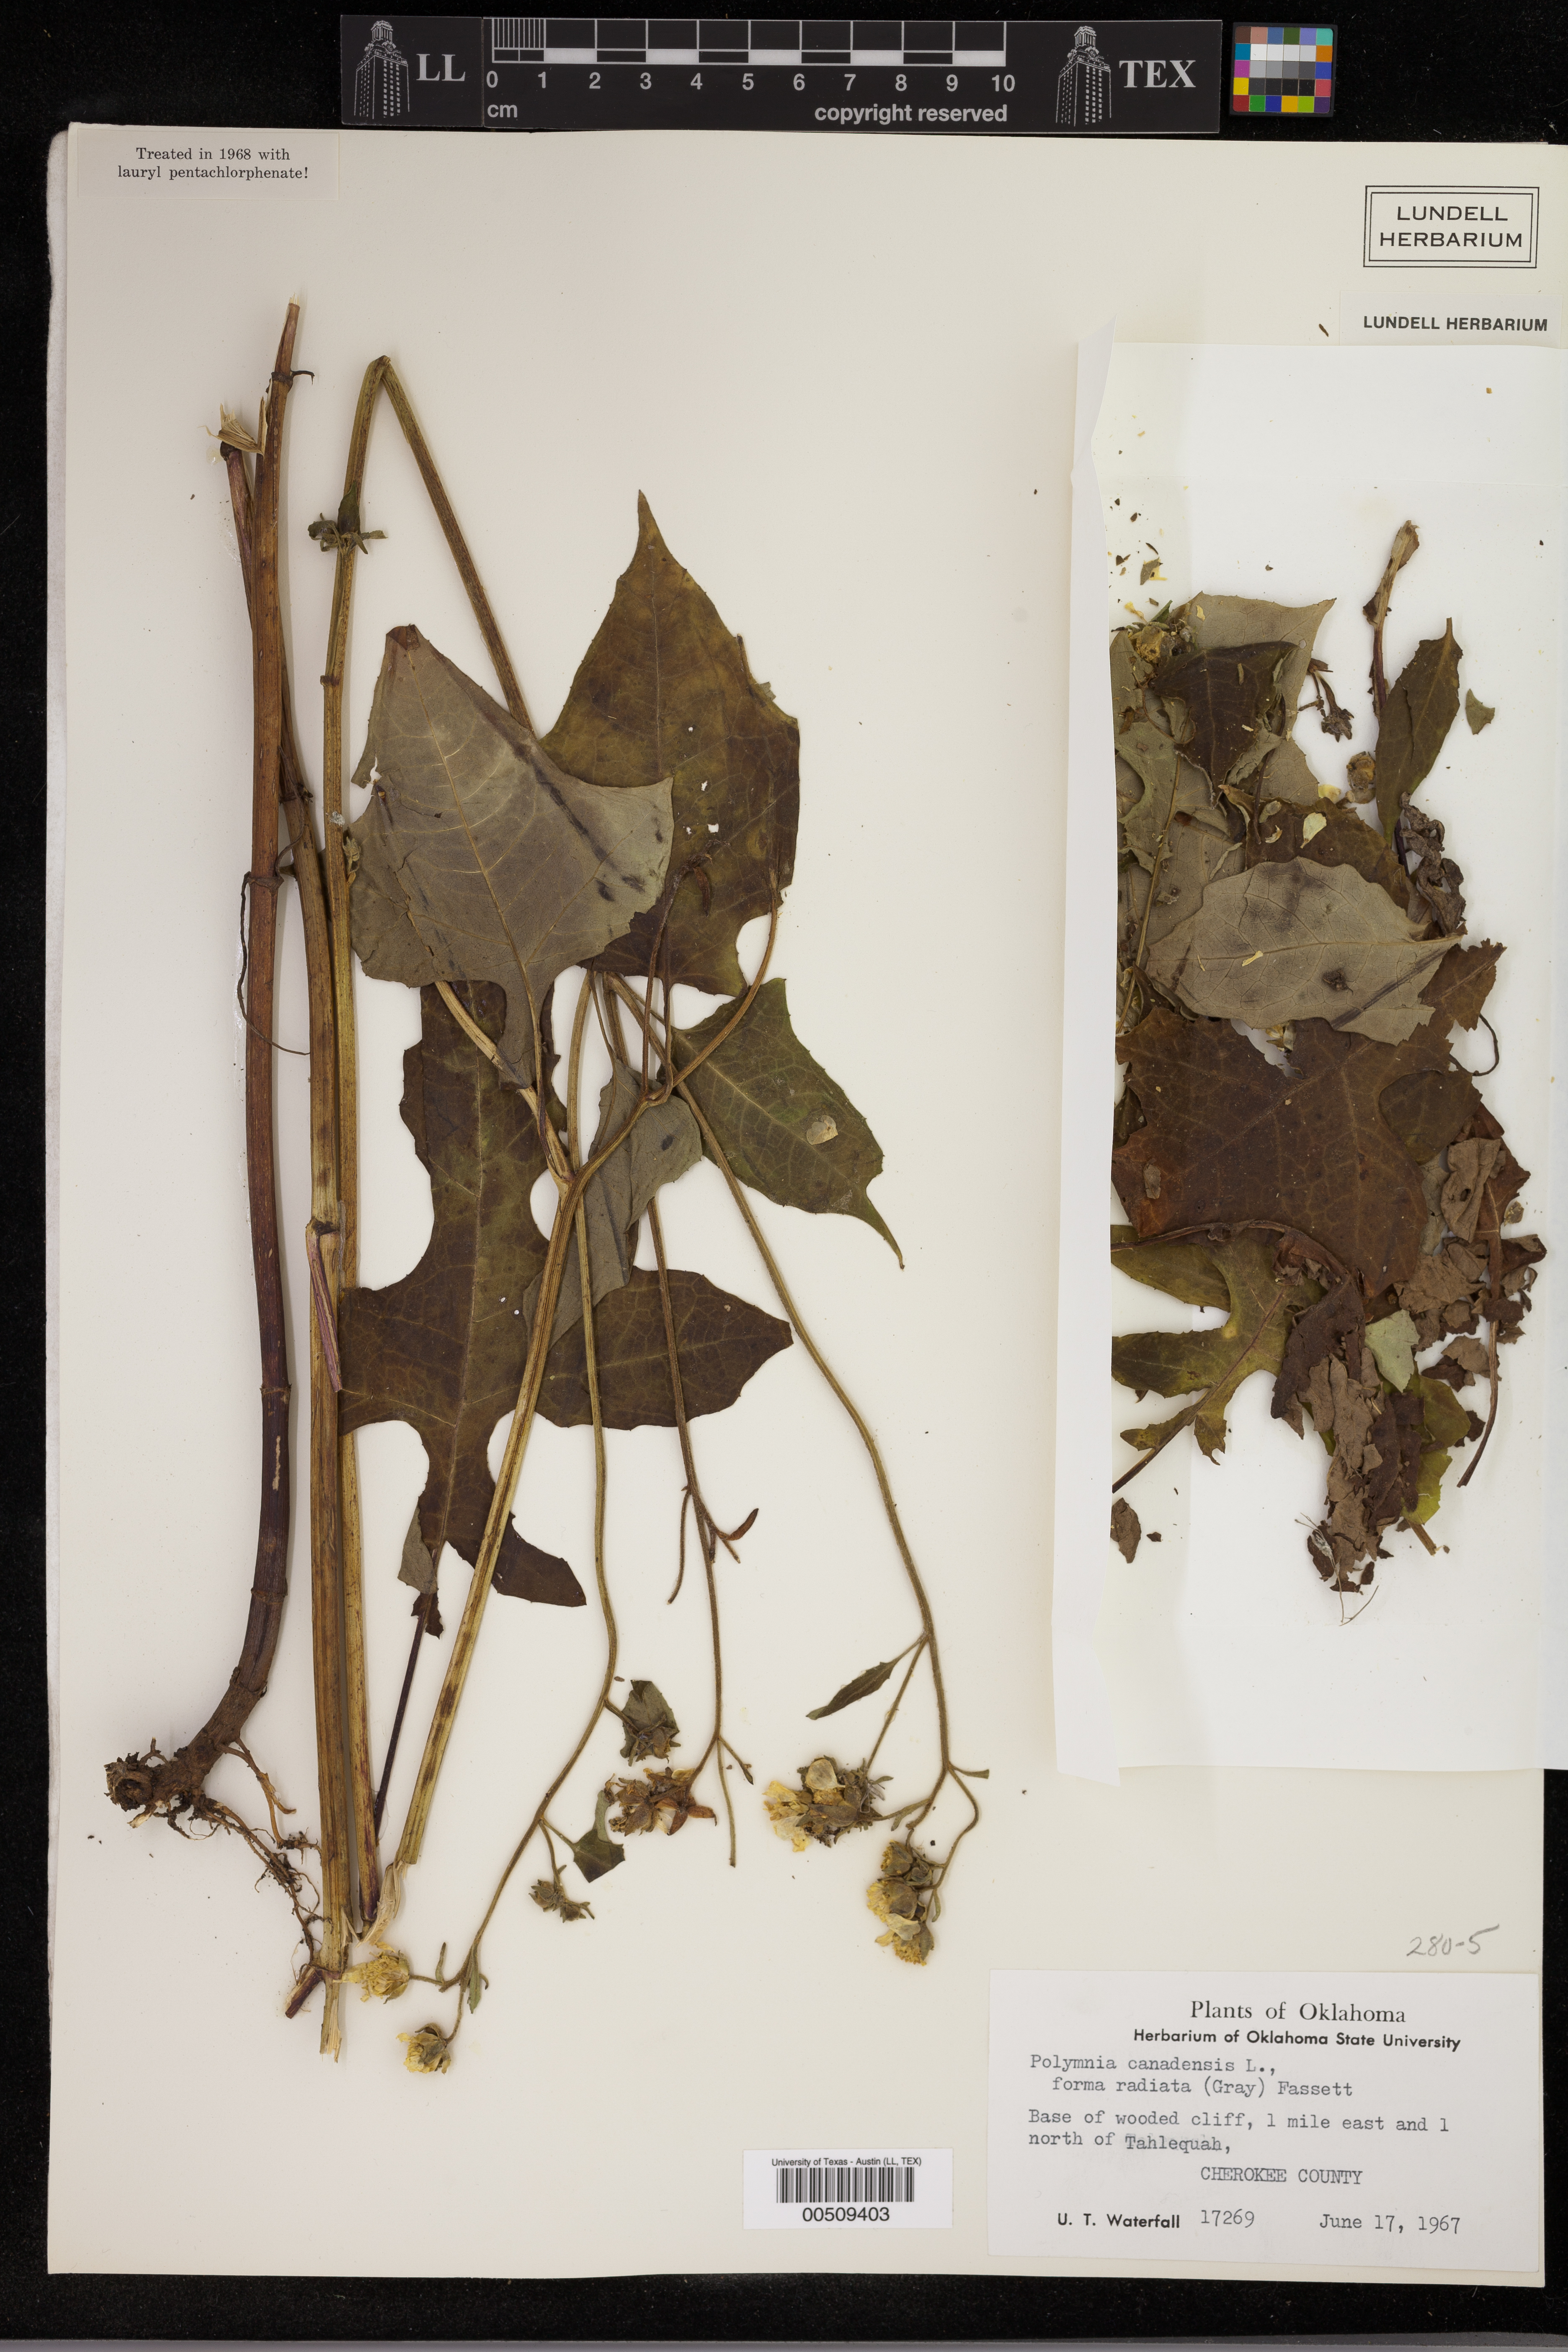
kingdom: Plantae
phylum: Tracheophyta
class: Magnoliopsida
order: Asterales
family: Asteraceae
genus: Polymnia
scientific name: Polymnia canadensis
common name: Pale-flowered leafcup
